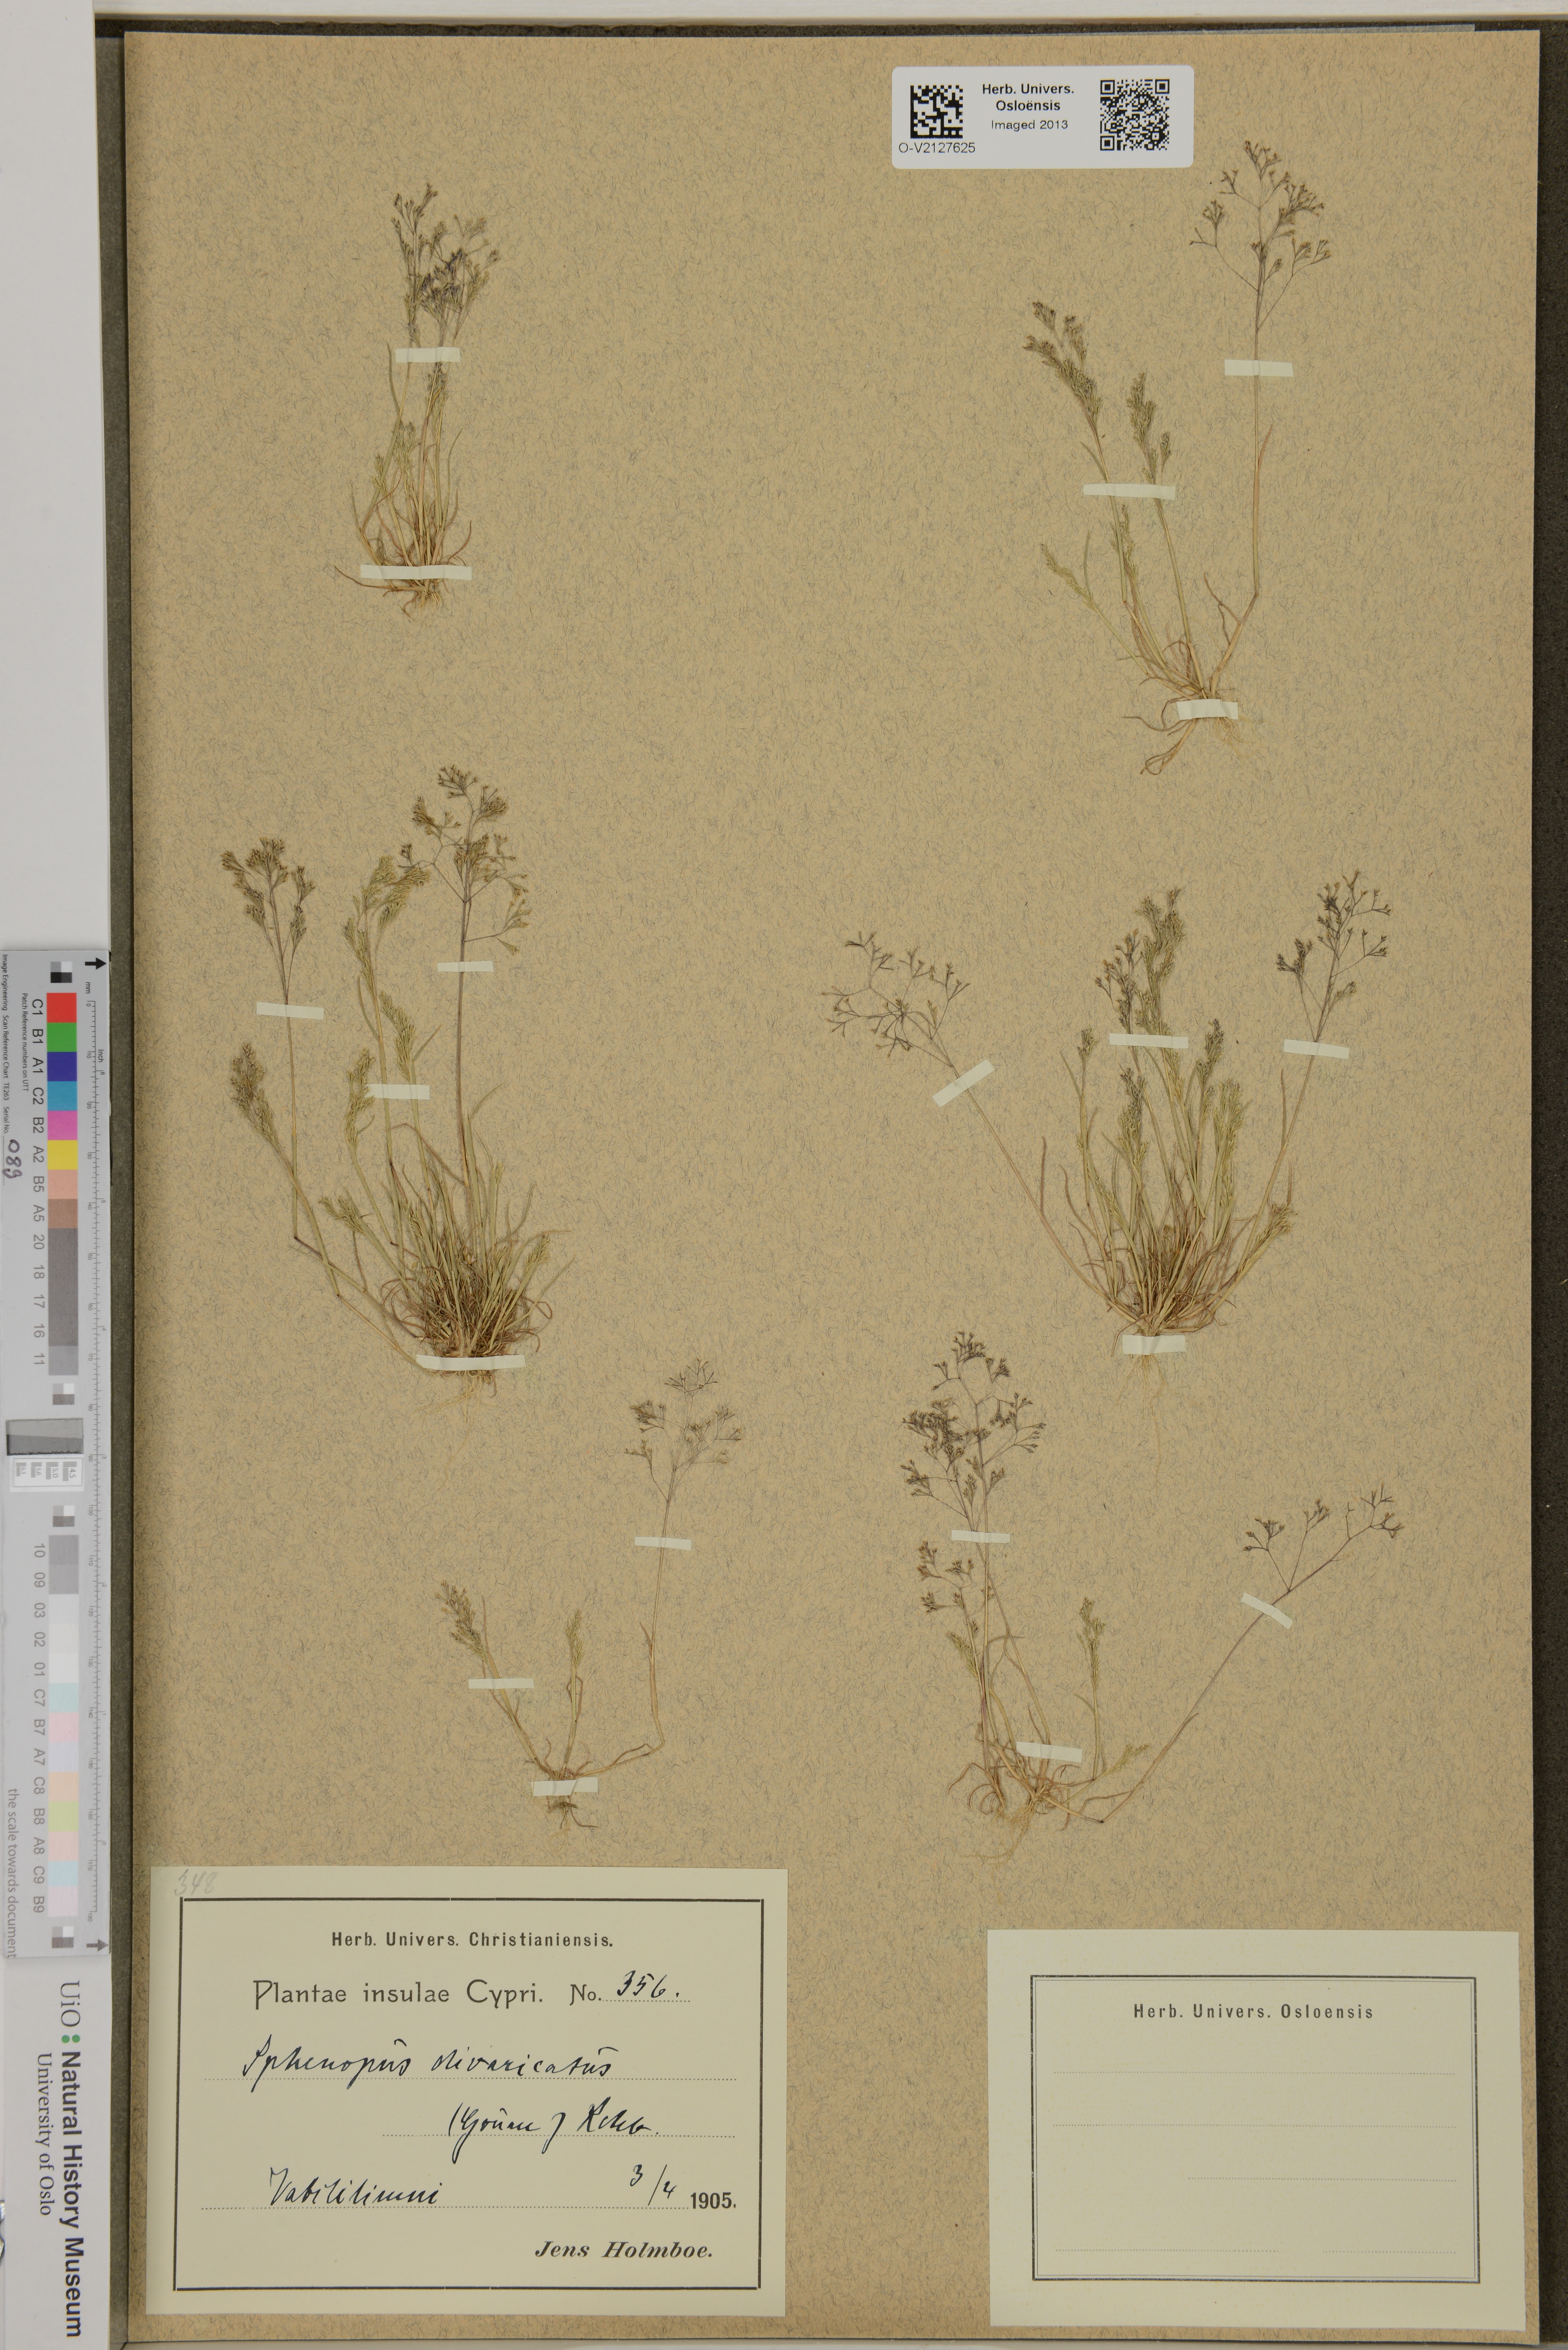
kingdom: Plantae
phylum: Tracheophyta
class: Liliopsida
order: Poales
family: Poaceae
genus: Sphenopus
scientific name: Sphenopus divaricatus
